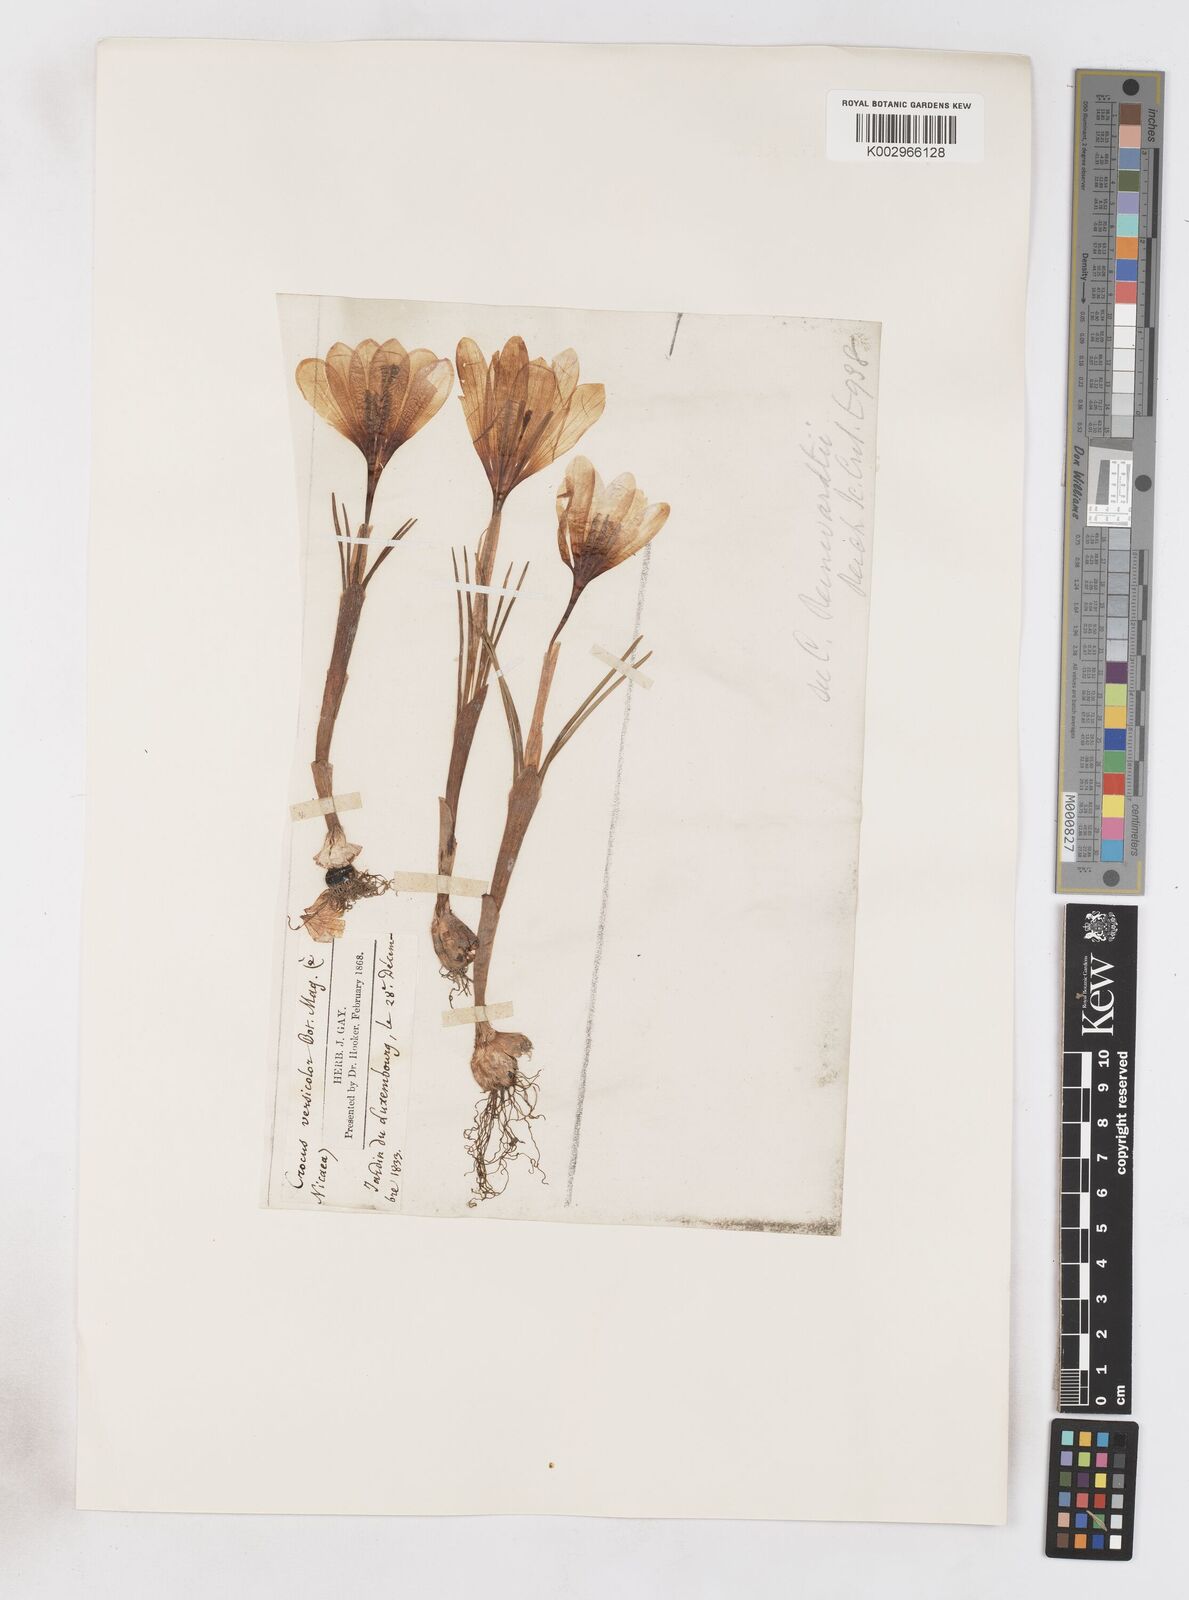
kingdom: Plantae
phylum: Tracheophyta
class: Liliopsida
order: Asparagales
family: Iridaceae
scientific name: Iridaceae
